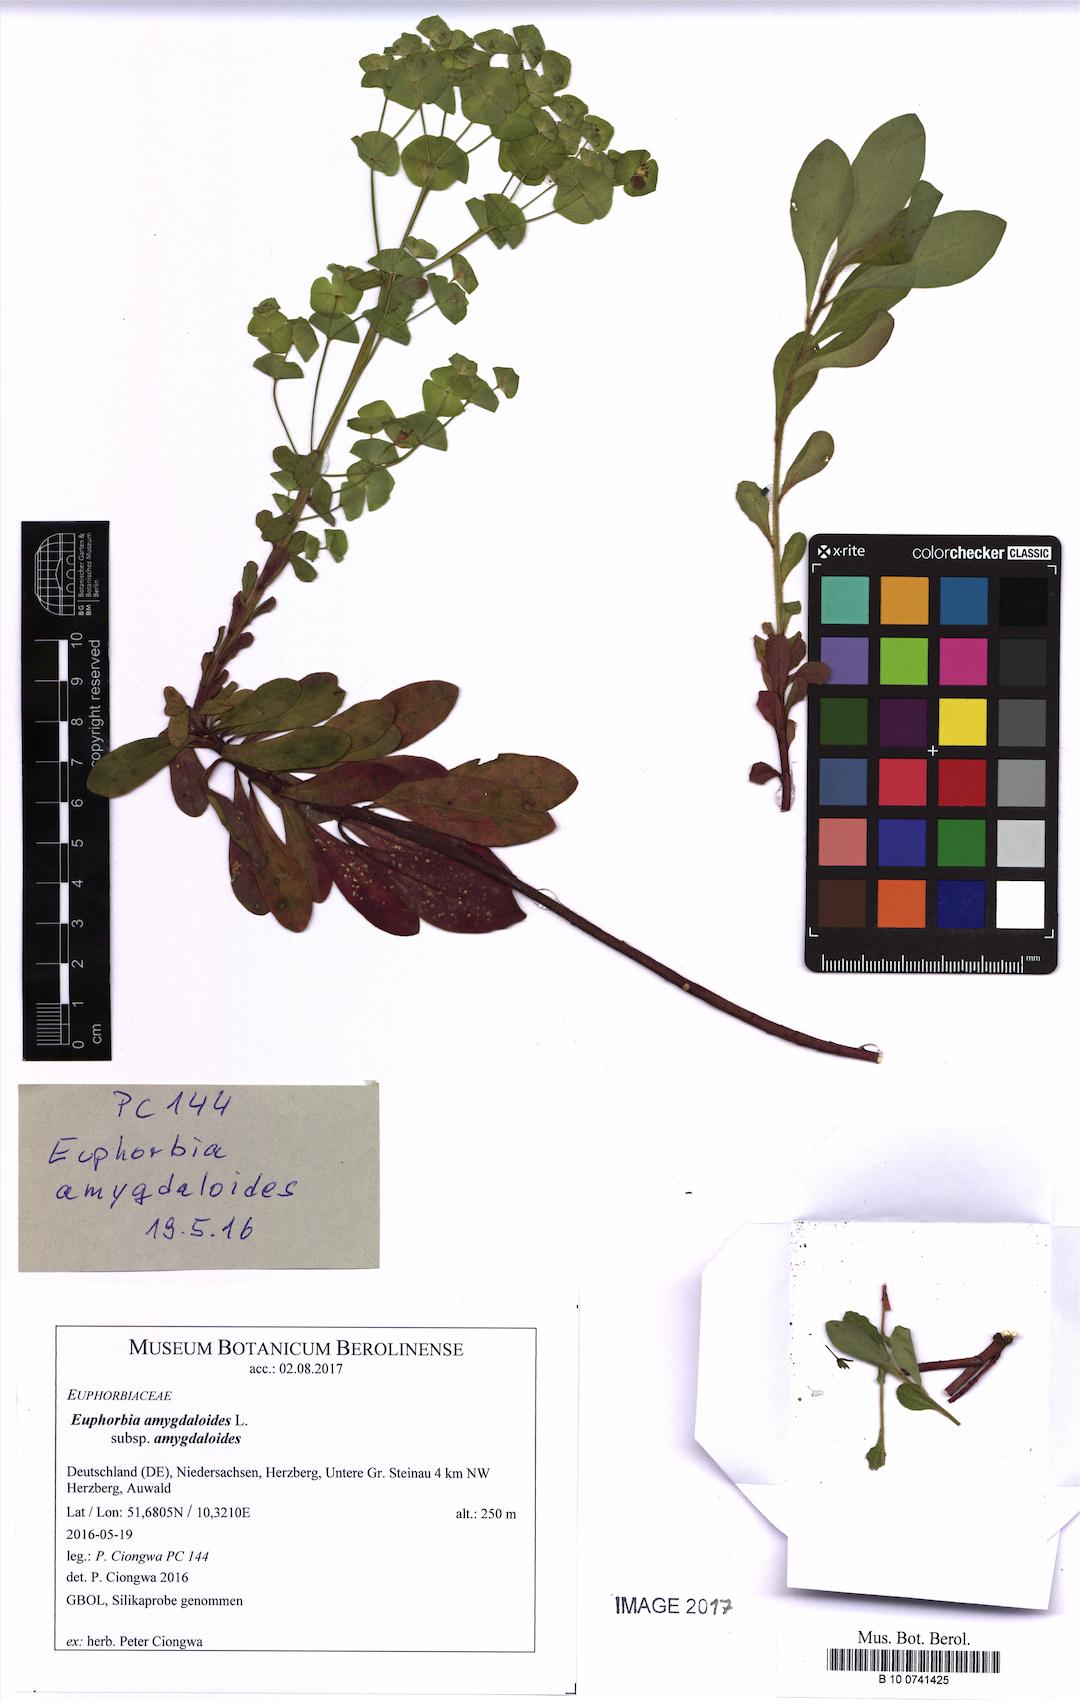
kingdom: Plantae
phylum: Tracheophyta
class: Magnoliopsida
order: Malpighiales
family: Euphorbiaceae
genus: Euphorbia
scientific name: Euphorbia amygdaloides
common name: Wood spurge
